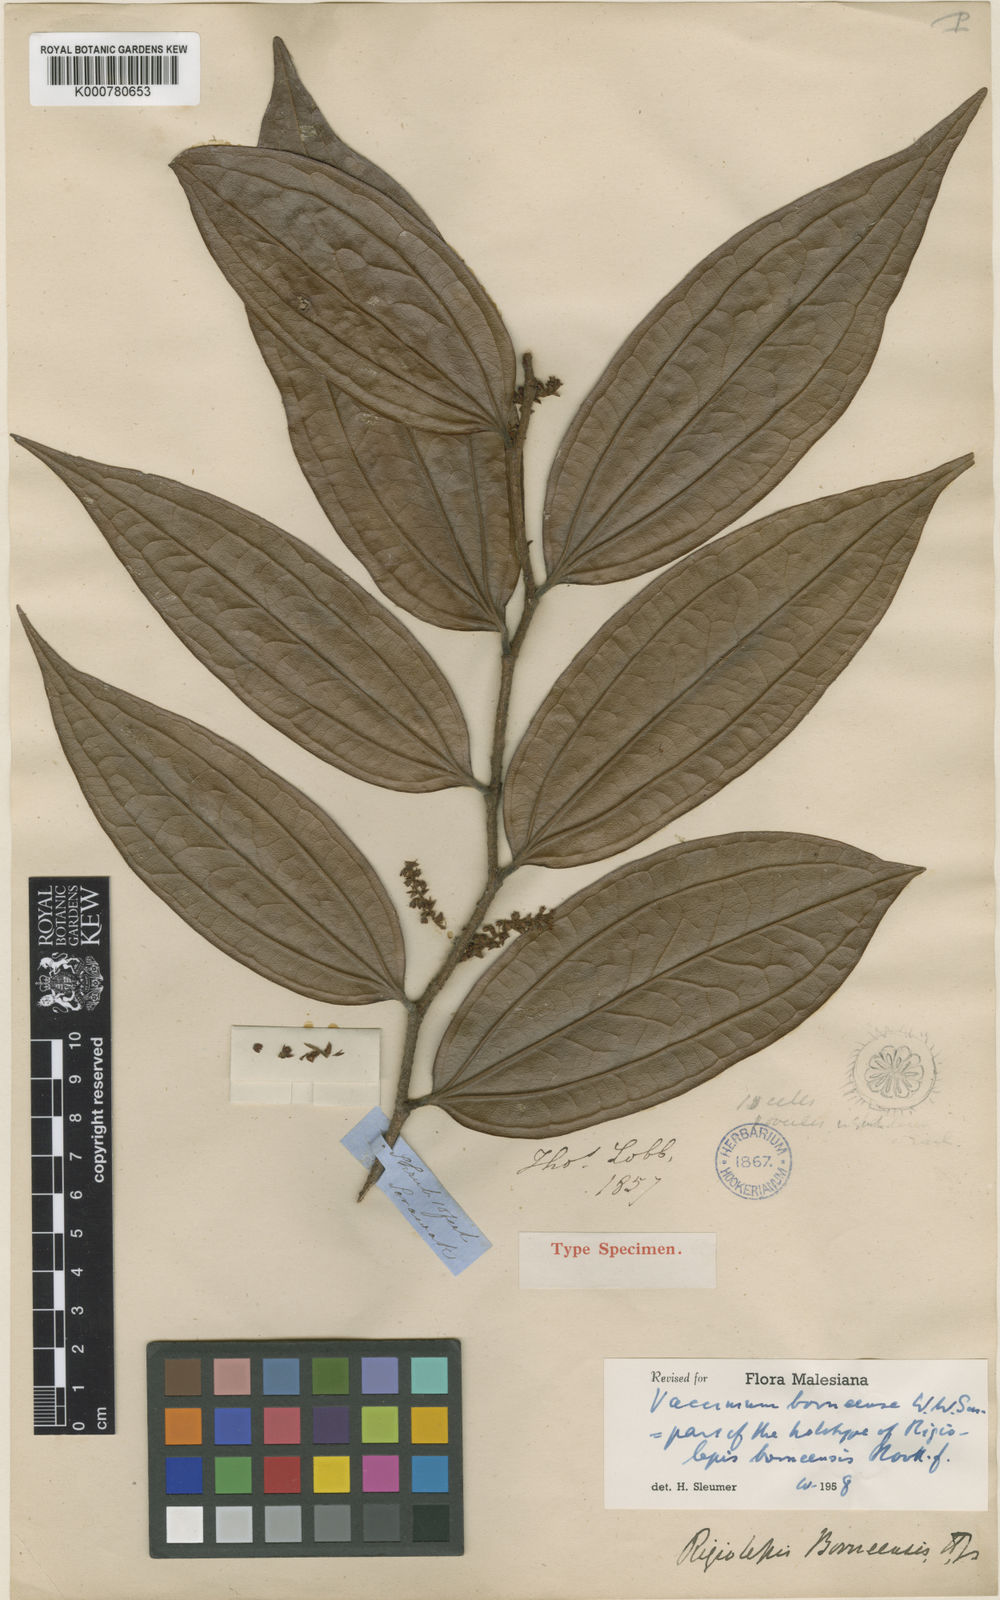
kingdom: Plantae
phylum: Tracheophyta
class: Magnoliopsida
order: Ericales
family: Ericaceae
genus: Rigiolepis
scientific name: Rigiolepis borneensis
